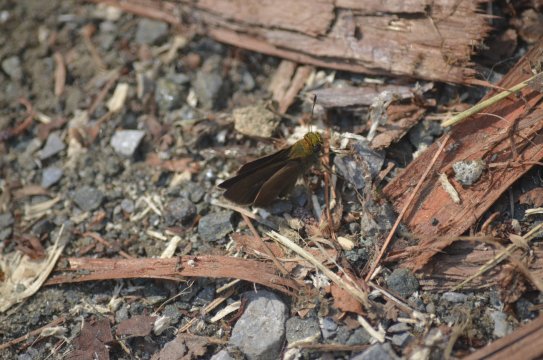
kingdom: Animalia
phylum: Arthropoda
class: Insecta
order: Lepidoptera
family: Hesperiidae
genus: Euphyes
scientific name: Euphyes vestris
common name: Dun Skipper
